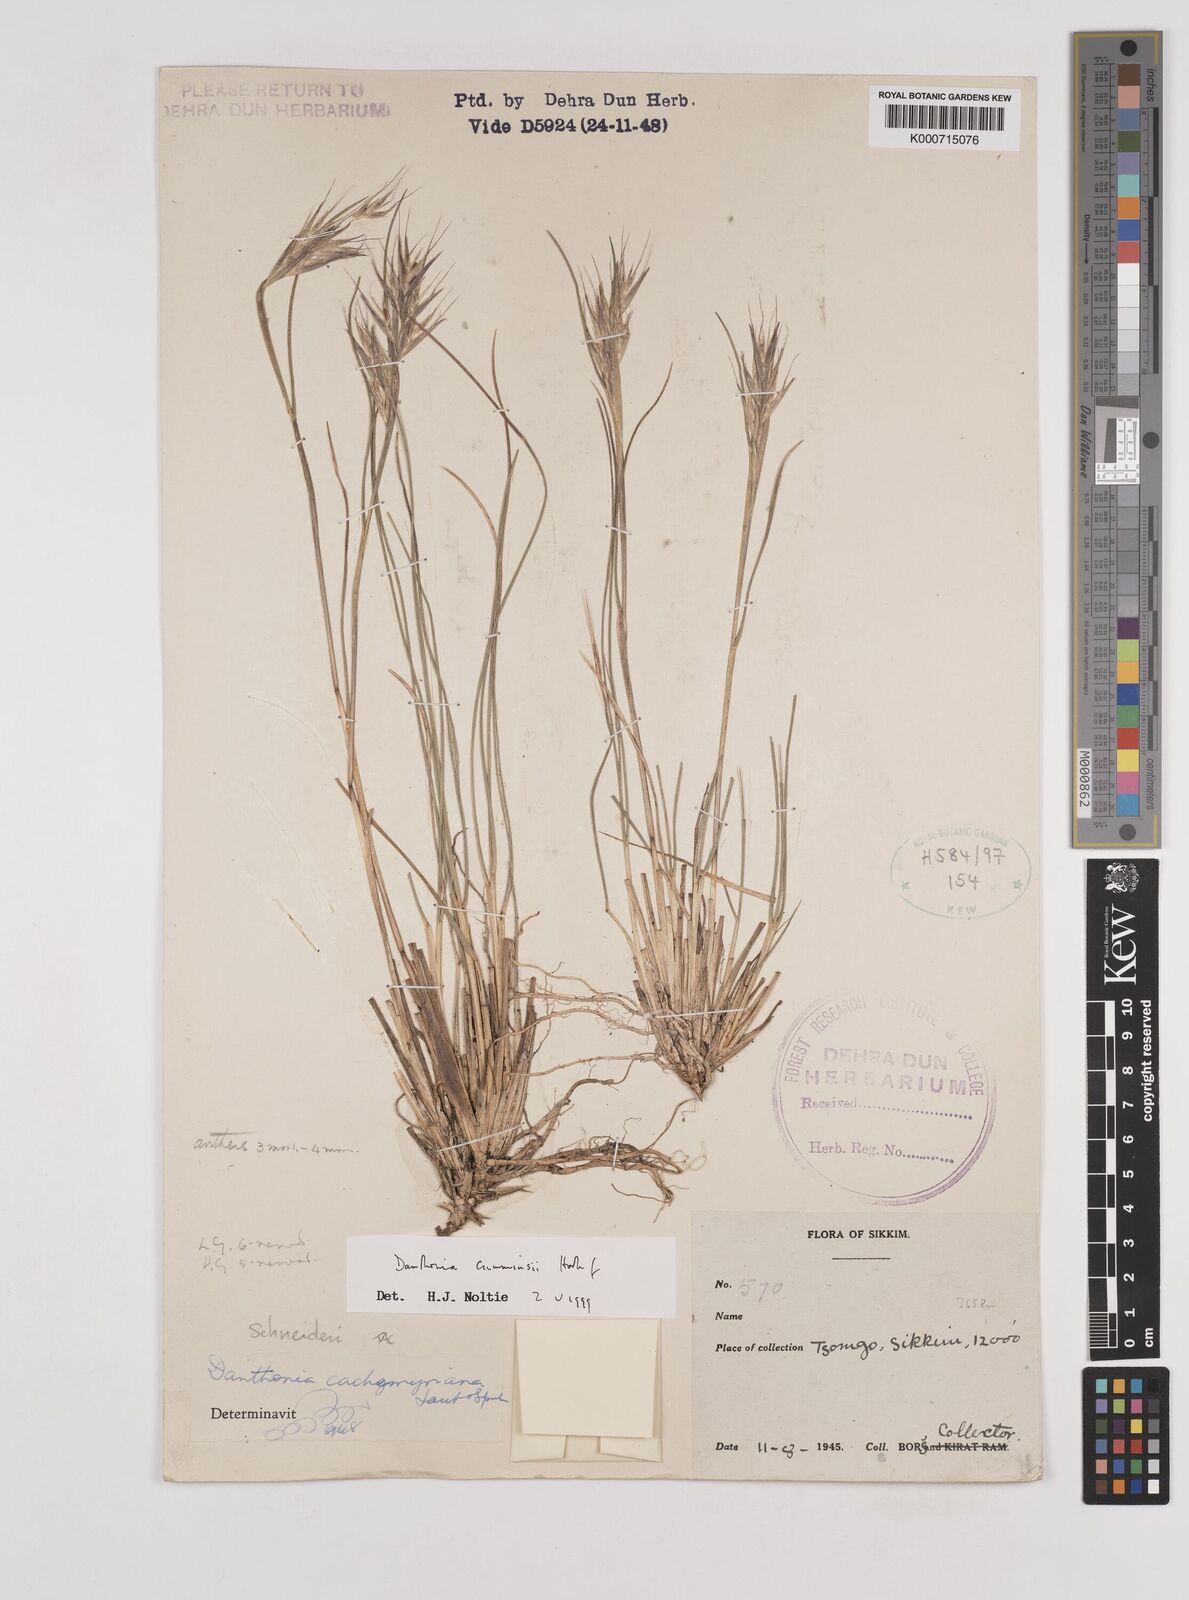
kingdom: Plantae
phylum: Tracheophyta
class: Liliopsida
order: Poales
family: Poaceae
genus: Rytidosperma
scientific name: Rytidosperma
